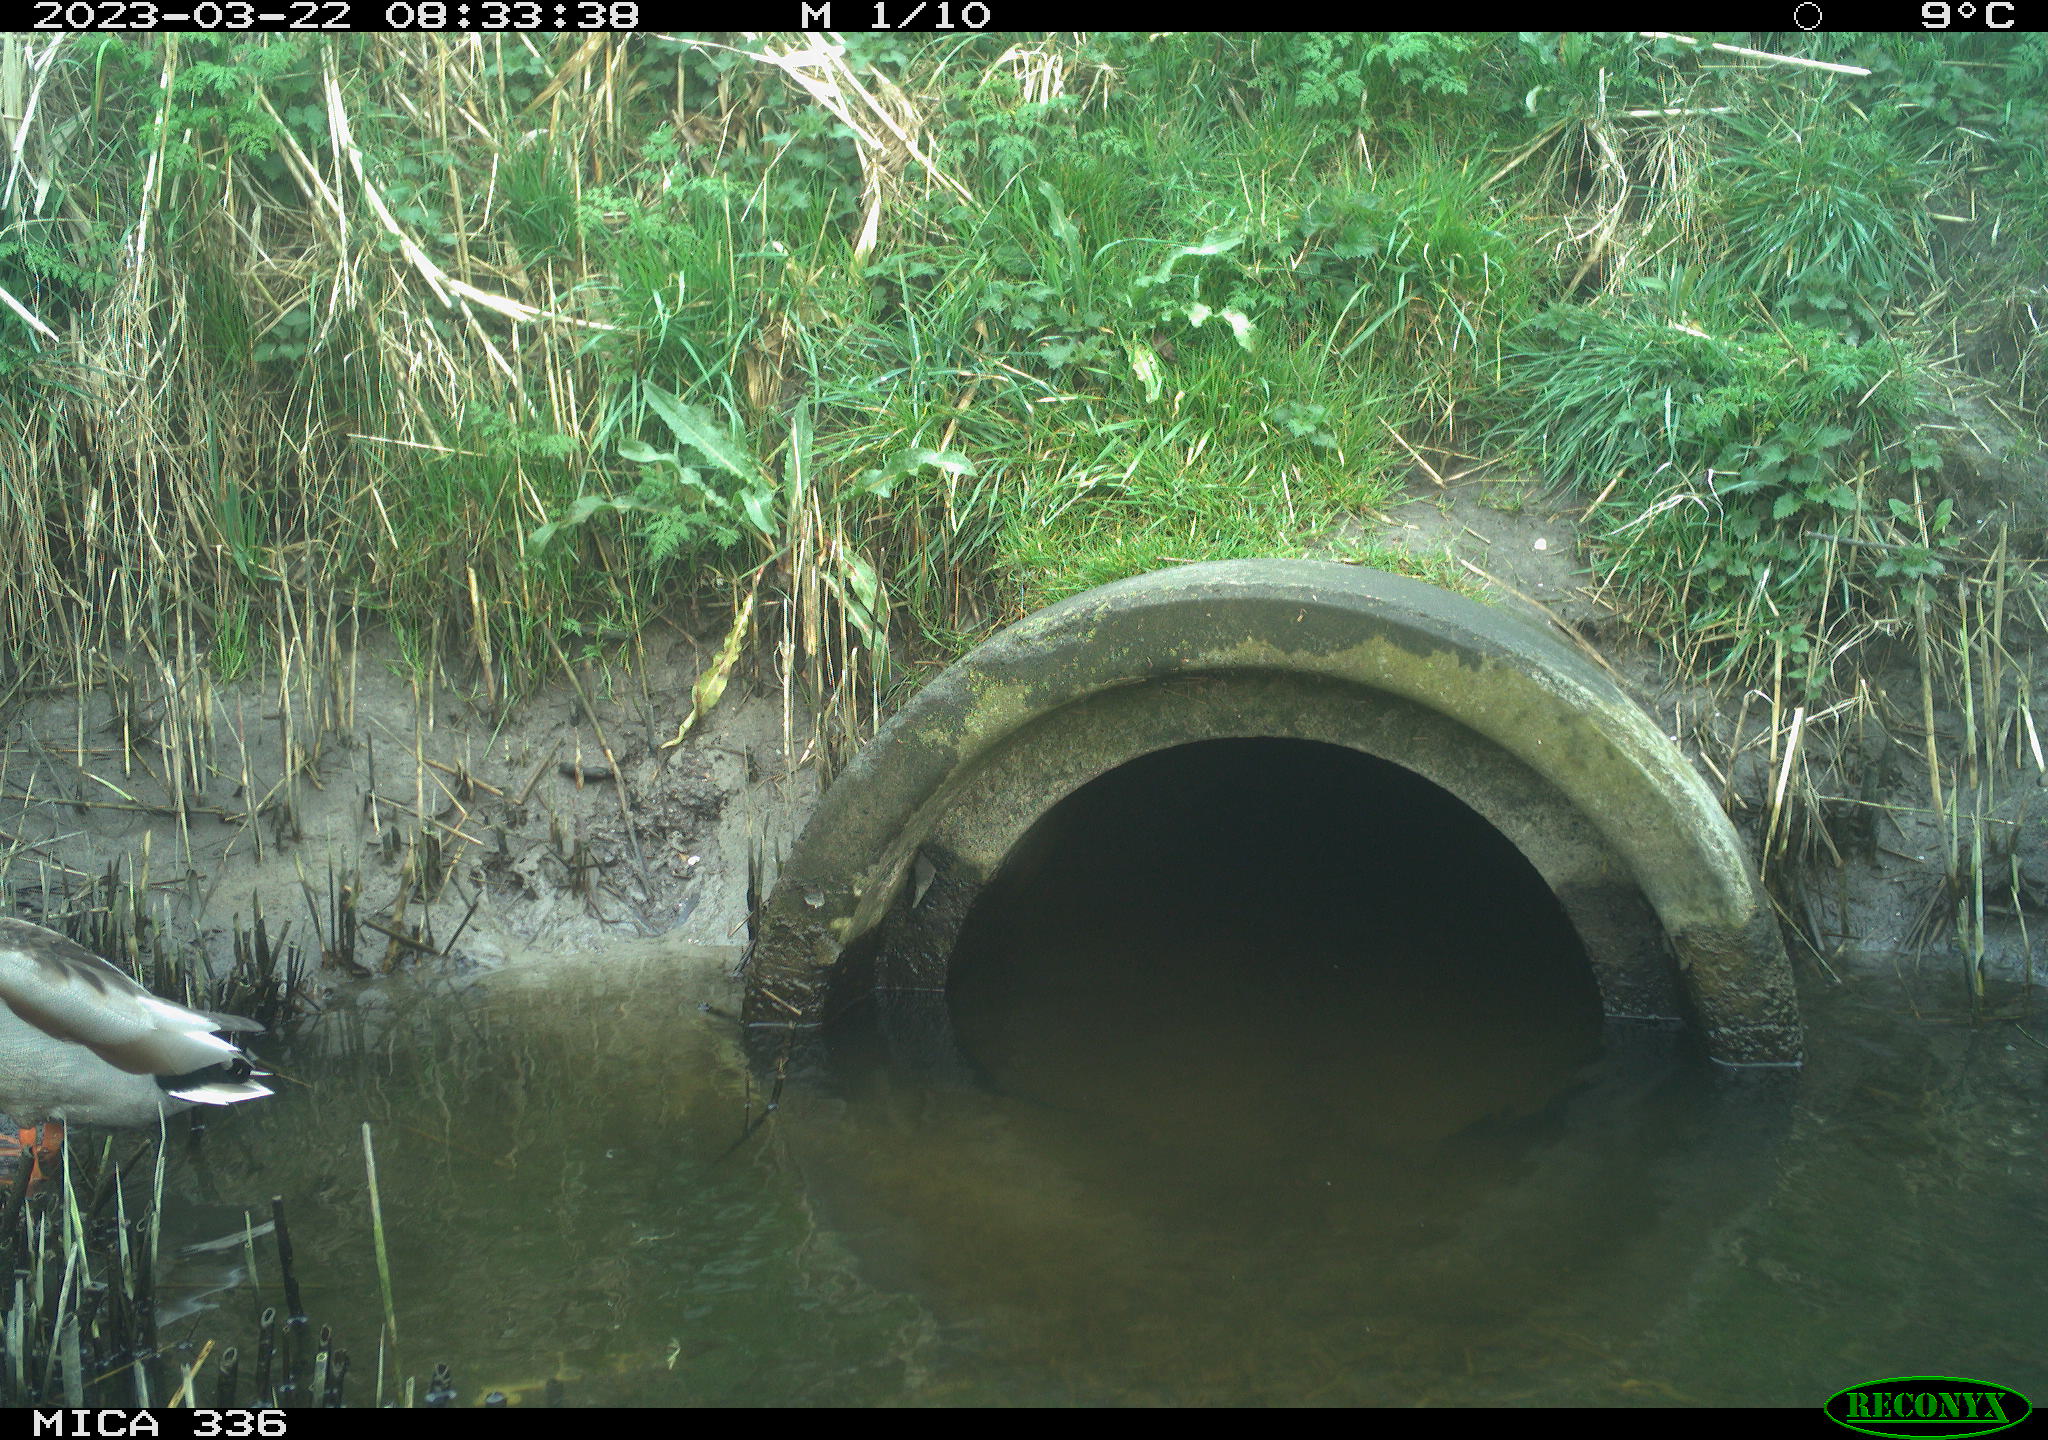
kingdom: Animalia
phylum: Chordata
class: Aves
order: Anseriformes
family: Anatidae
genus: Anas
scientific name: Anas
